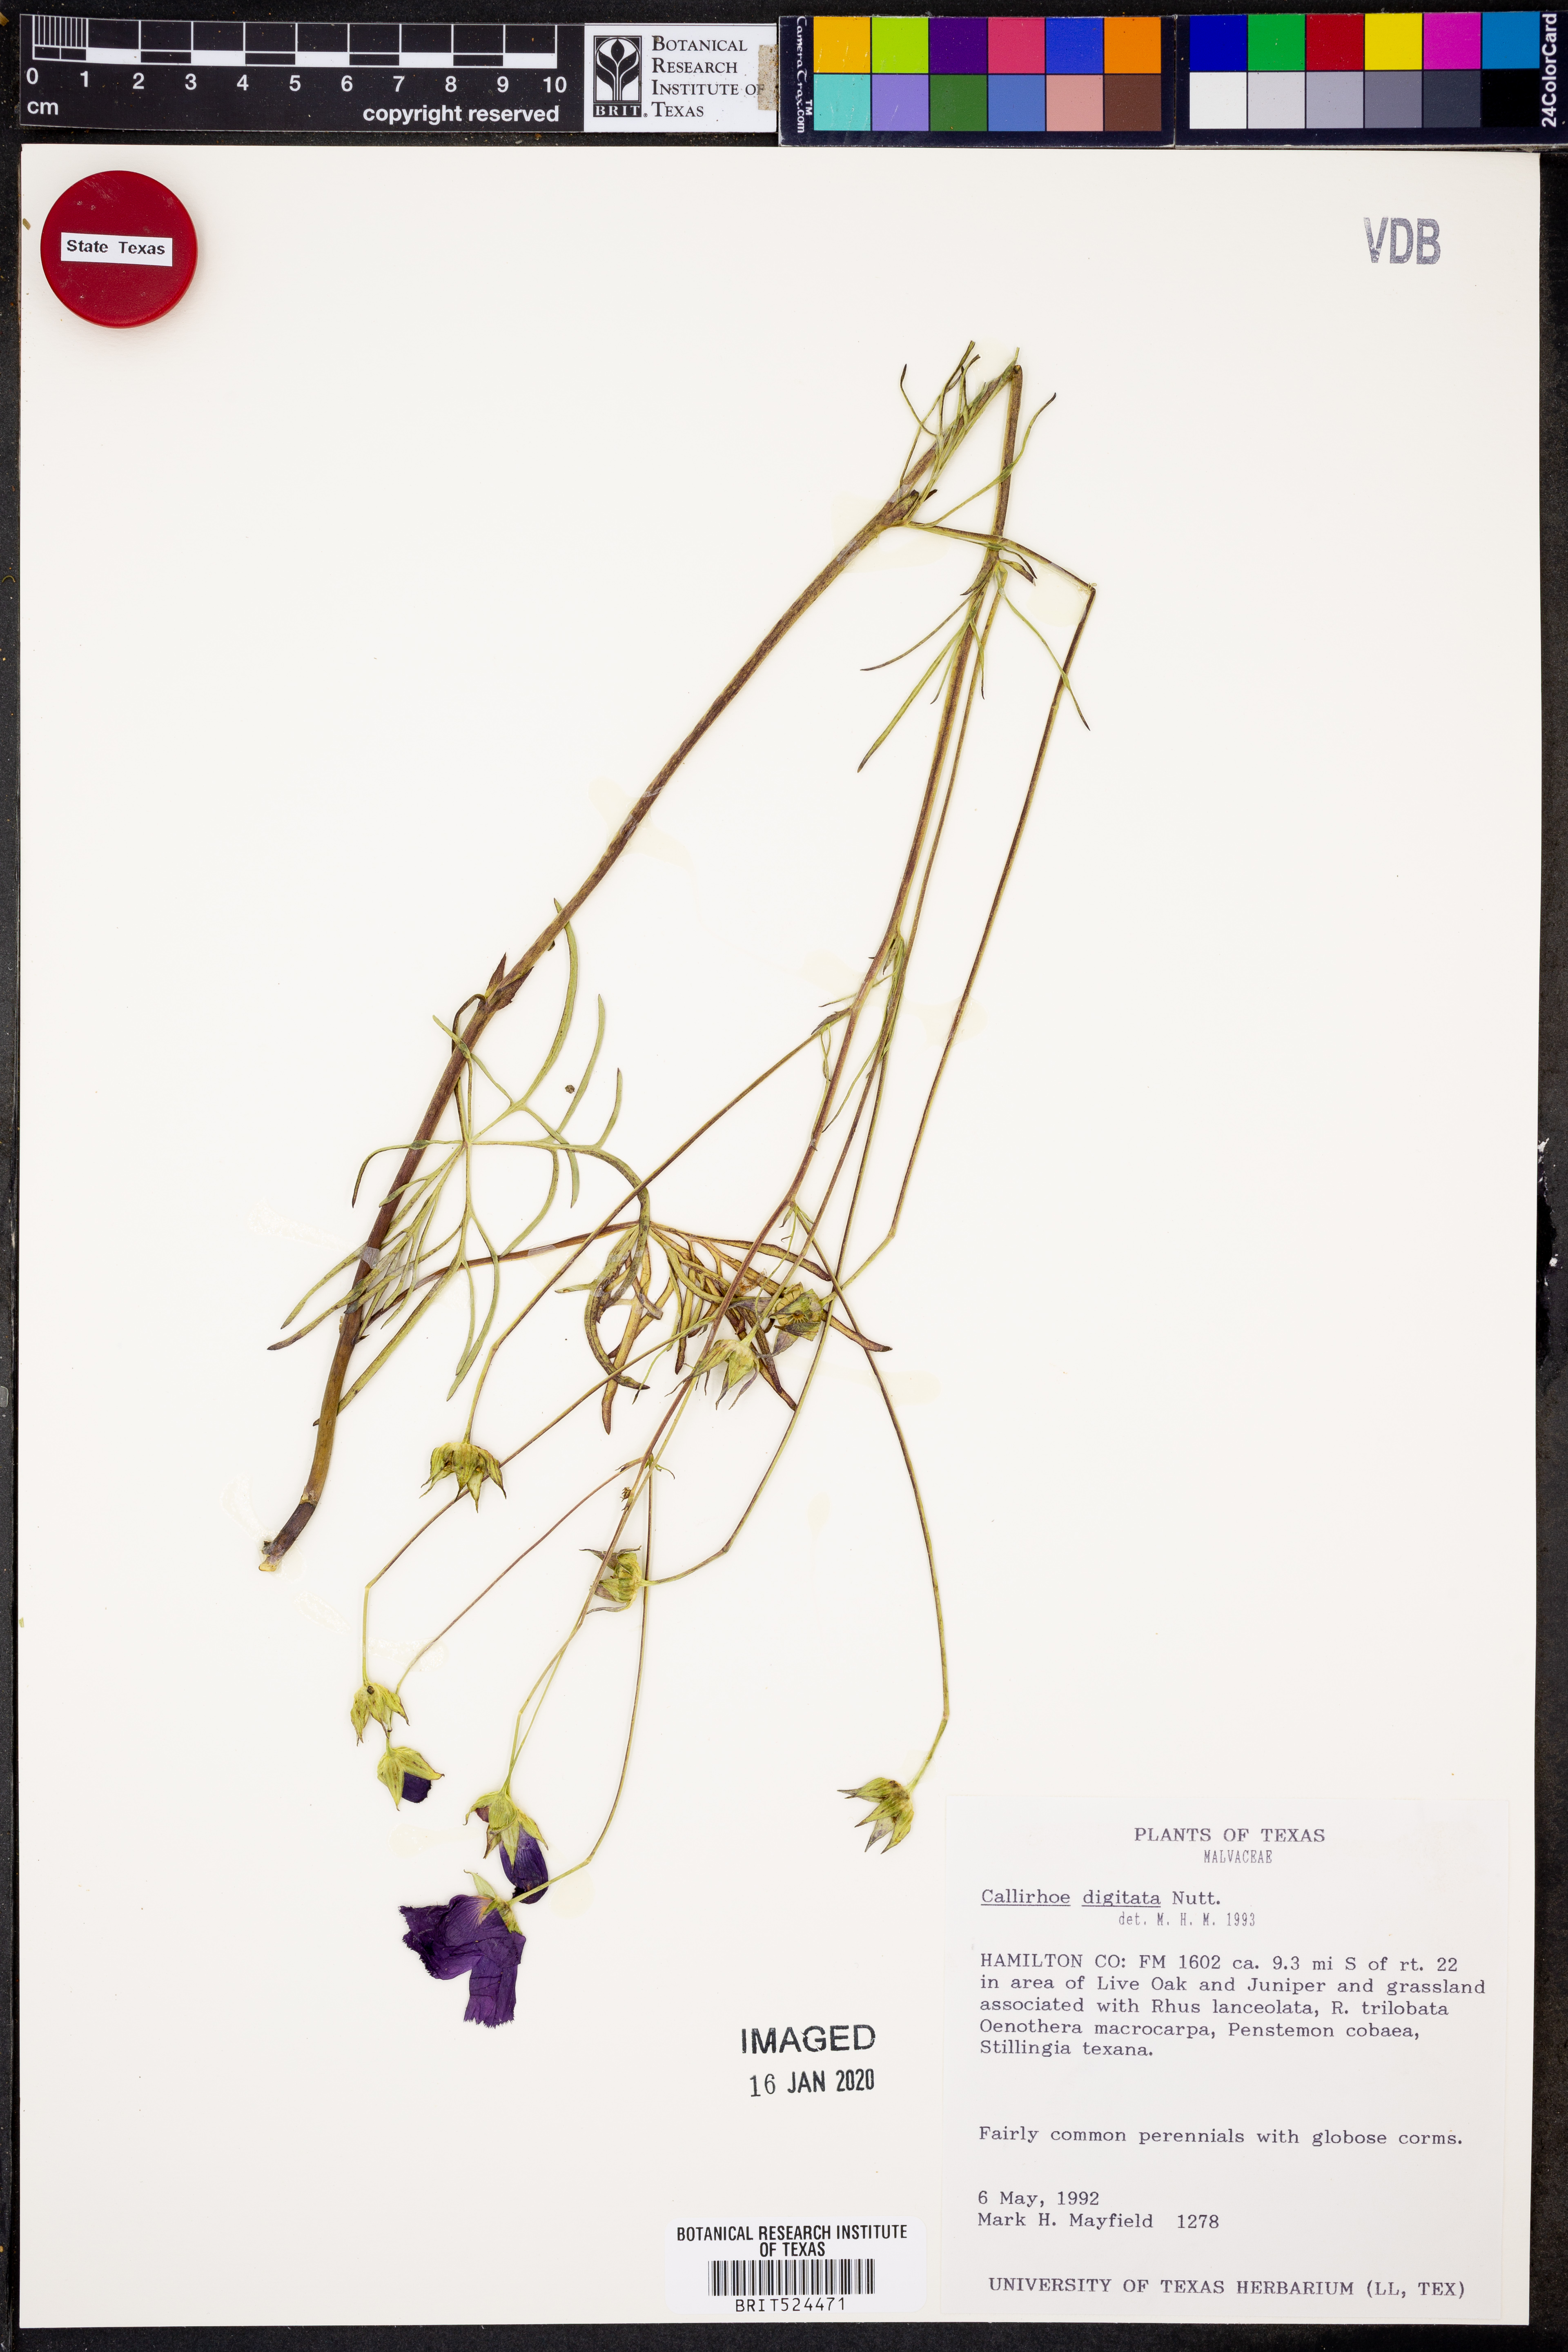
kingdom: Plantae
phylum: Tracheophyta
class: Magnoliopsida
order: Malvales
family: Malvaceae
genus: Callirhoe
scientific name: Callirhoe digitata
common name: Finger poppy-mallow
